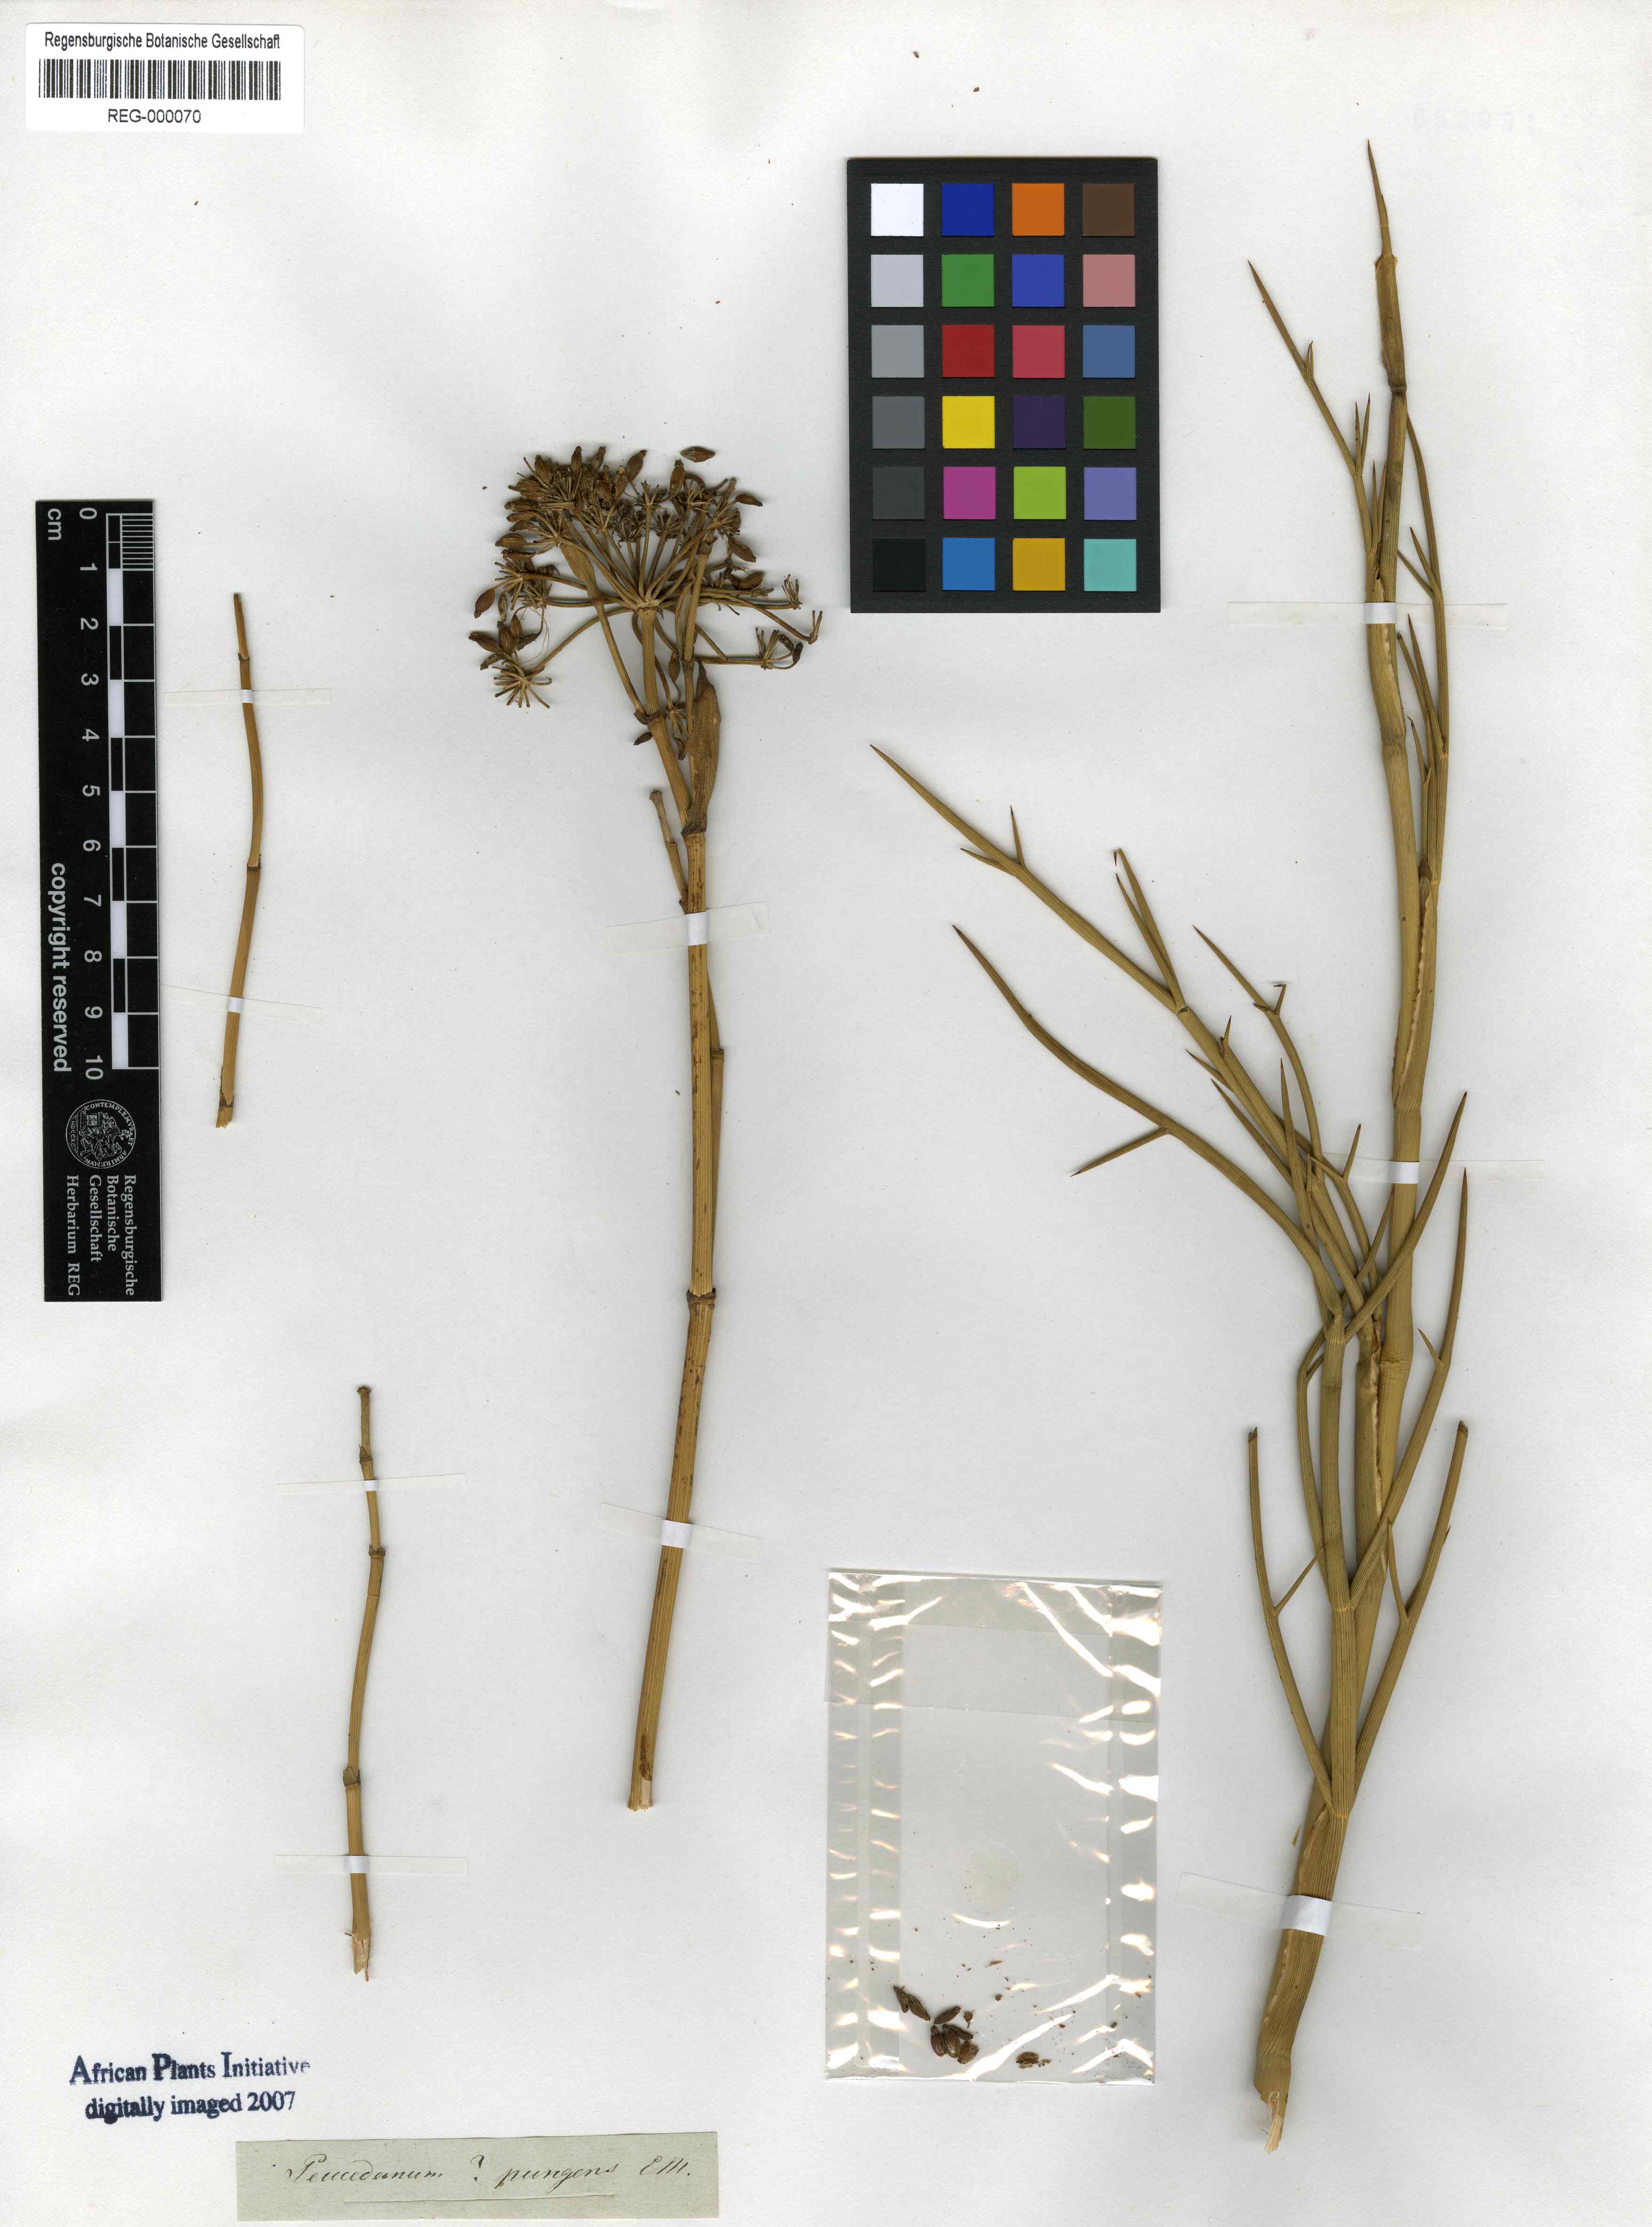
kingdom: Plantae
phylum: Tracheophyta
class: Magnoliopsida
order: Apiales
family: Apiaceae
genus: Notobubon
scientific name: Notobubon pungens
